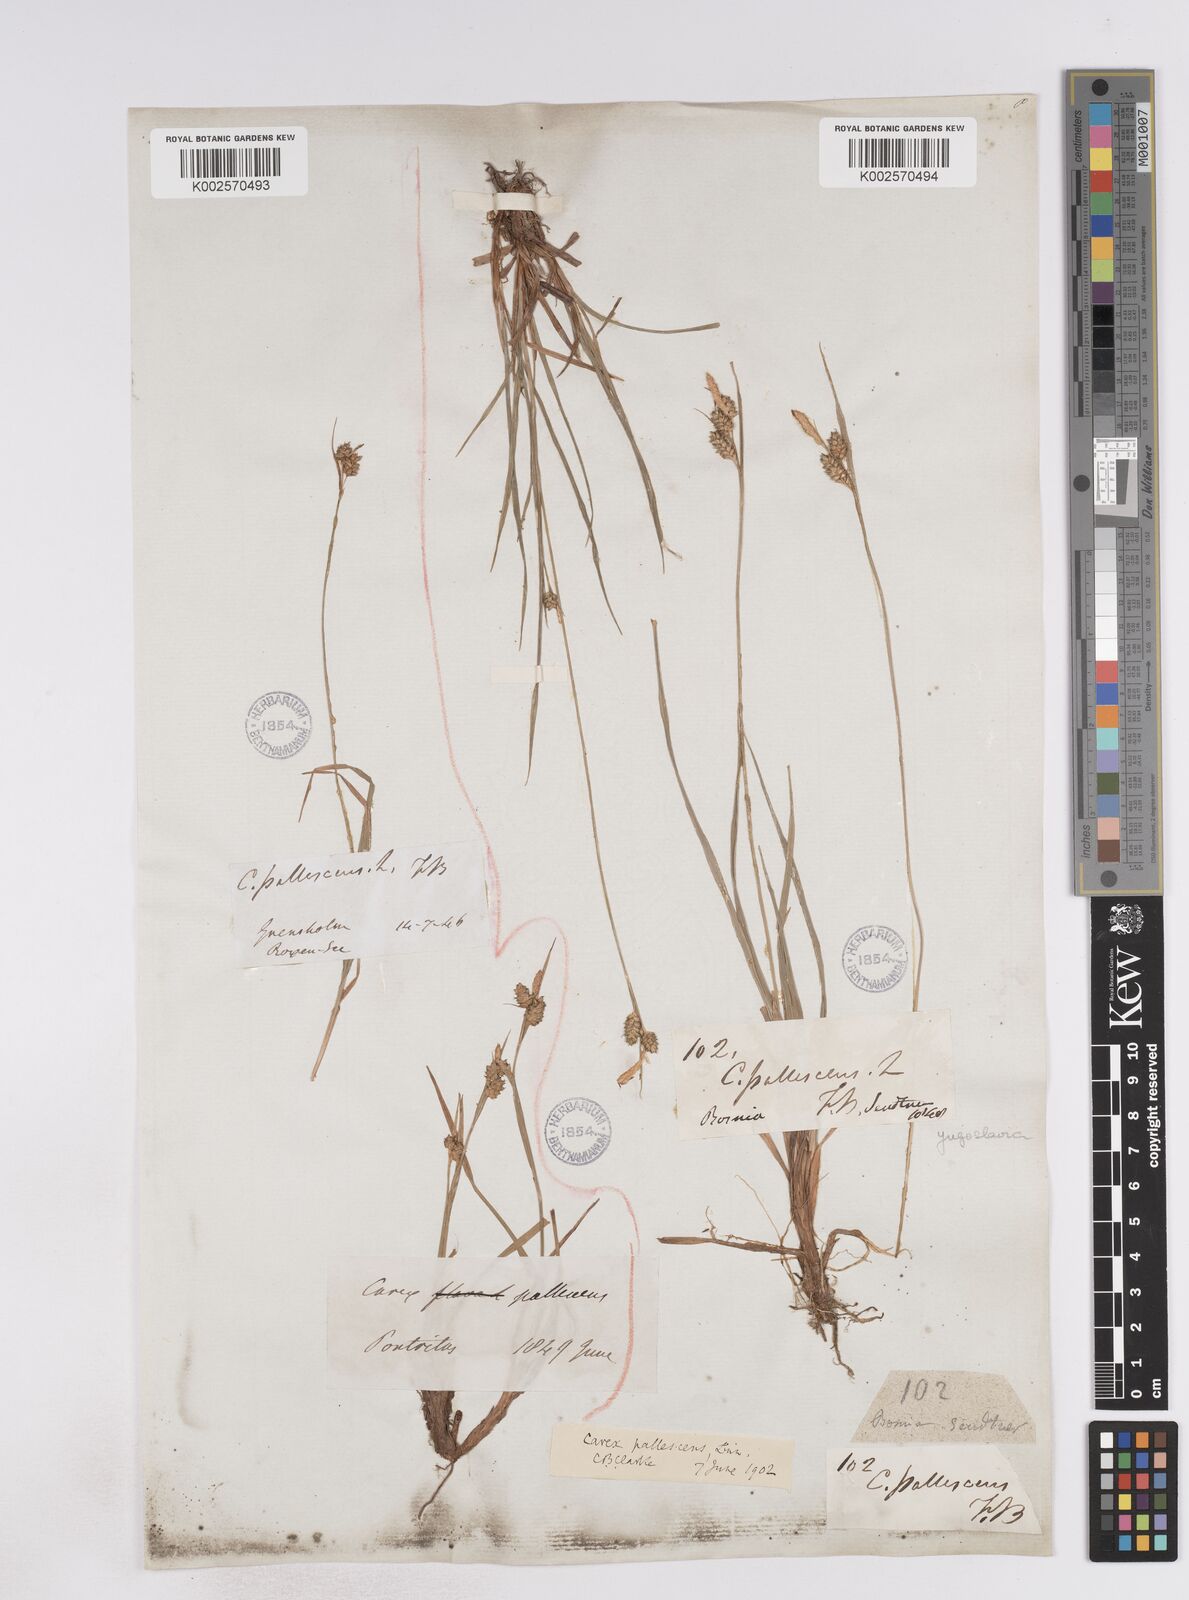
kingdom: Plantae
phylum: Tracheophyta
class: Liliopsida
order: Poales
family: Cyperaceae
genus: Carex
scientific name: Carex pallescens
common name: Pale sedge
